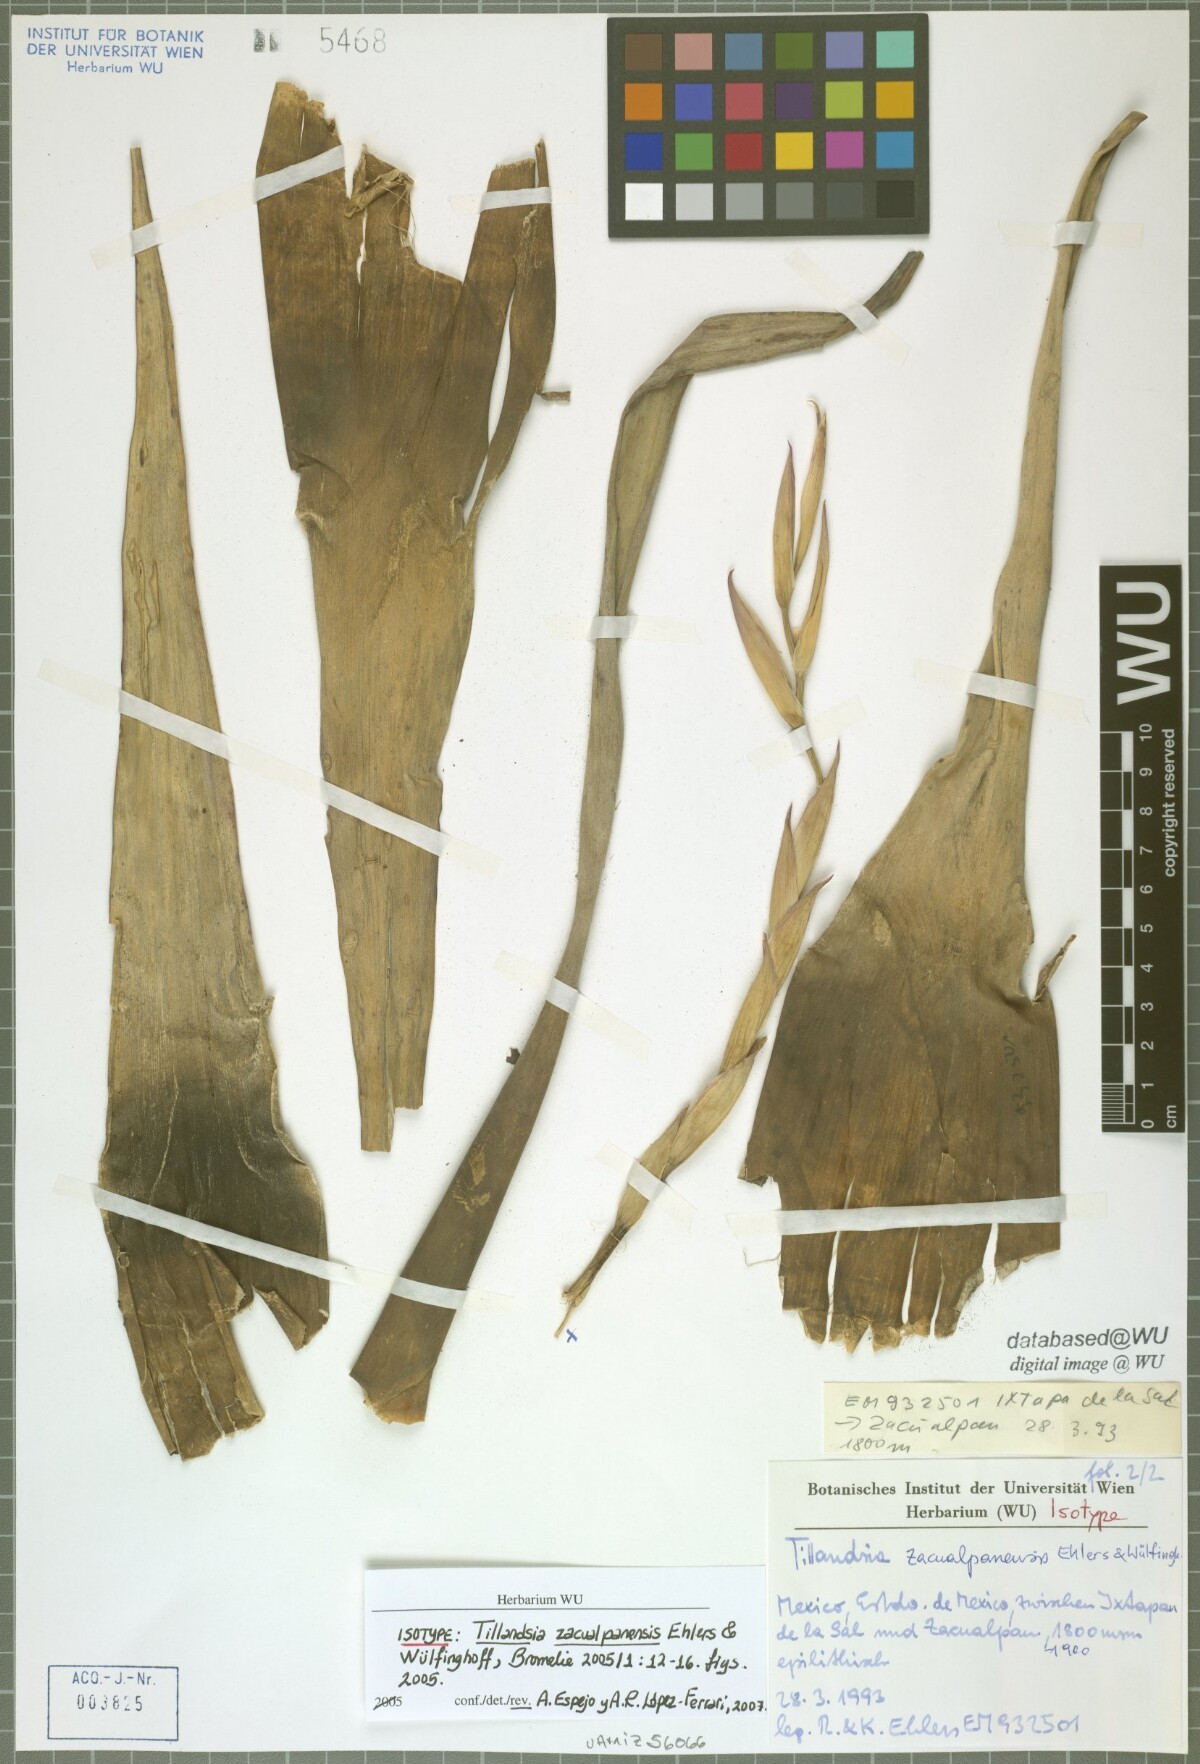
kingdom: Plantae
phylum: Tracheophyta
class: Liliopsida
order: Poales
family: Bromeliaceae
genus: Tillandsia
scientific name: Tillandsia zacualpanensis
